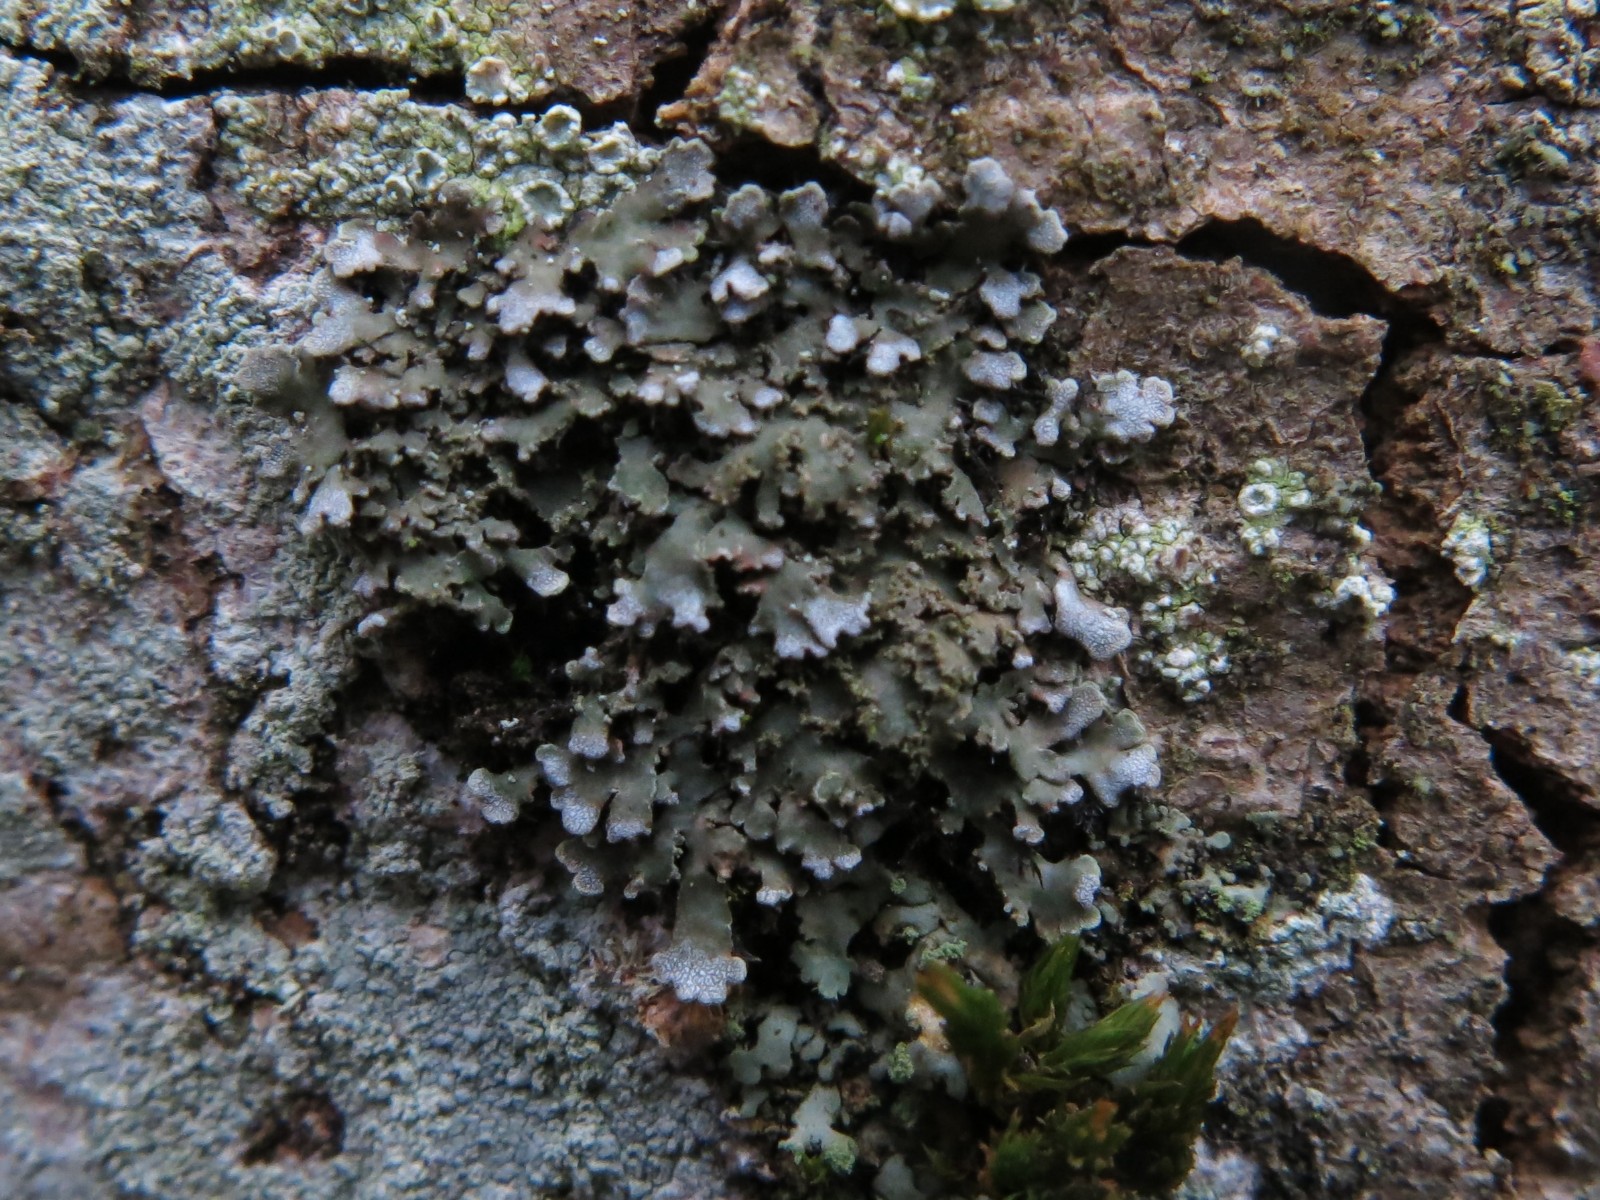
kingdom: Fungi
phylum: Ascomycota
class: Lecanoromycetes
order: Caliciales
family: Physciaceae
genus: Physconia
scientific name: Physconia perisidiosa
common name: liden dugrosetlav
